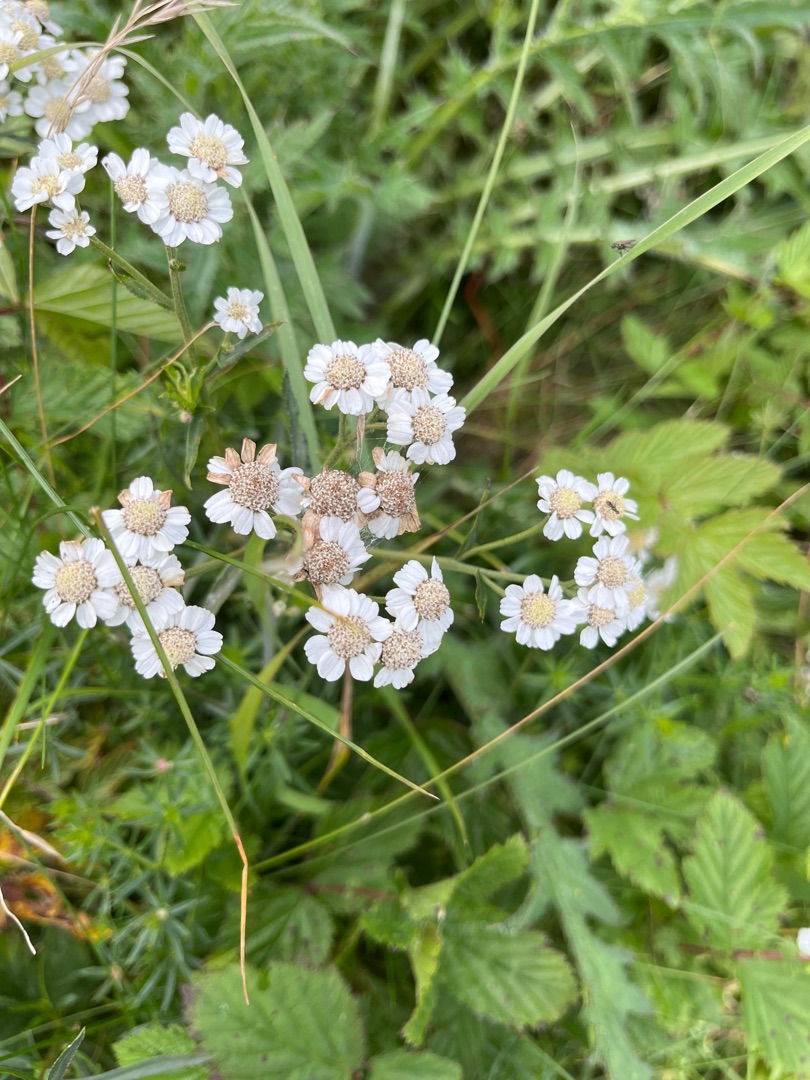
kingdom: Plantae
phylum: Tracheophyta
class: Magnoliopsida
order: Asterales
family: Asteraceae
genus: Achillea
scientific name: Achillea ptarmica
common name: Nyse-røllike
